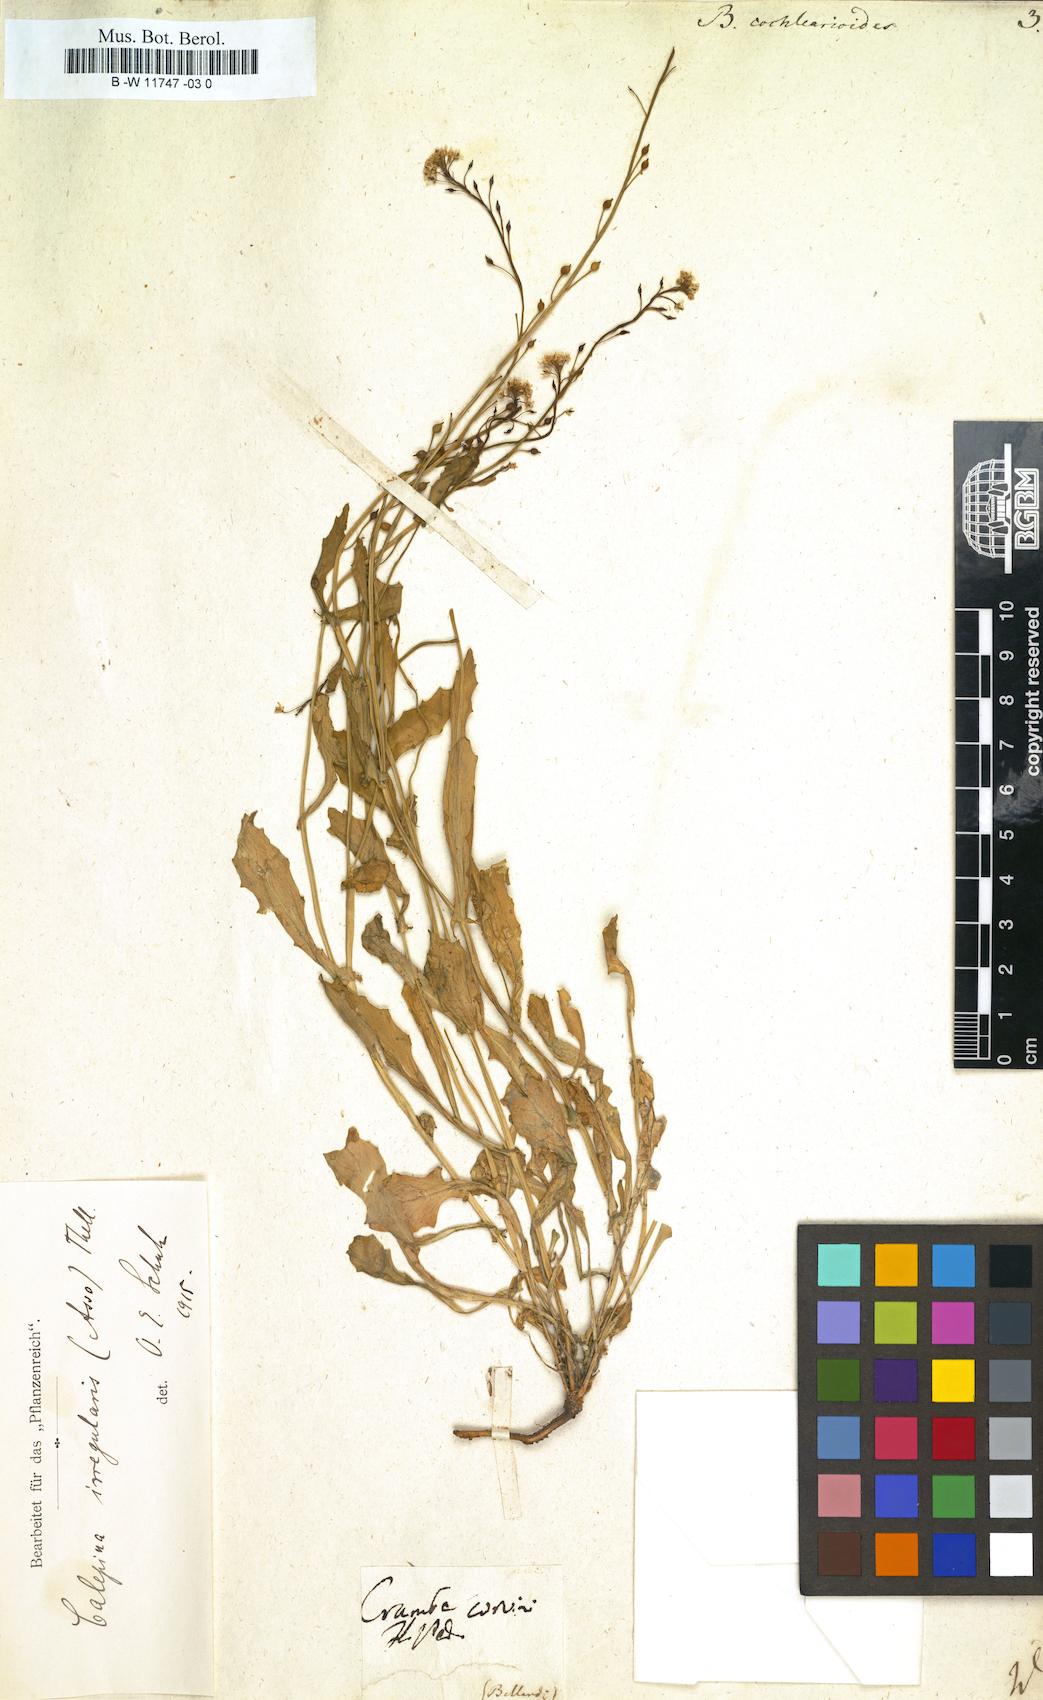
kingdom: Plantae
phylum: Tracheophyta
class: Magnoliopsida
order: Brassicales
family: Brassicaceae
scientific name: Brassicaceae
